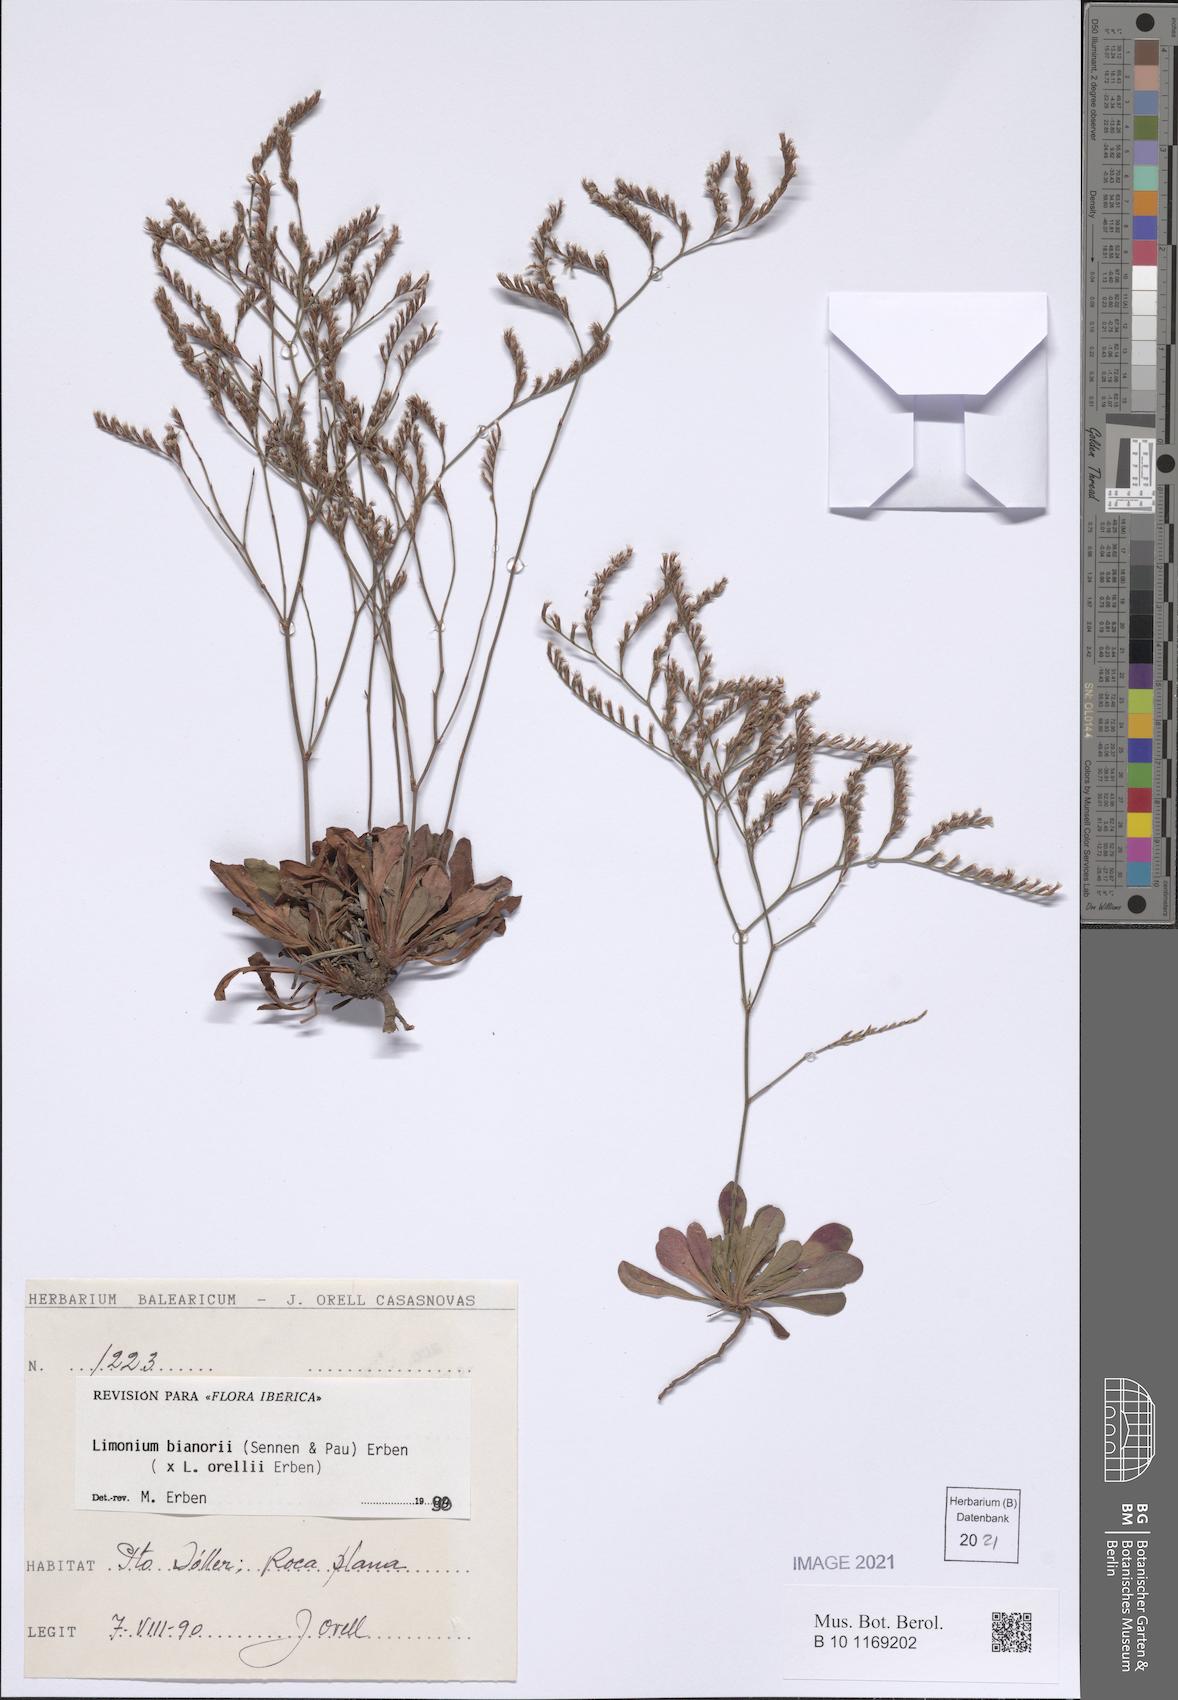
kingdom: Plantae
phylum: Tracheophyta
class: Magnoliopsida
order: Caryophyllales
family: Plumbaginaceae
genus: Limonium
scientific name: Limonium bianorii
